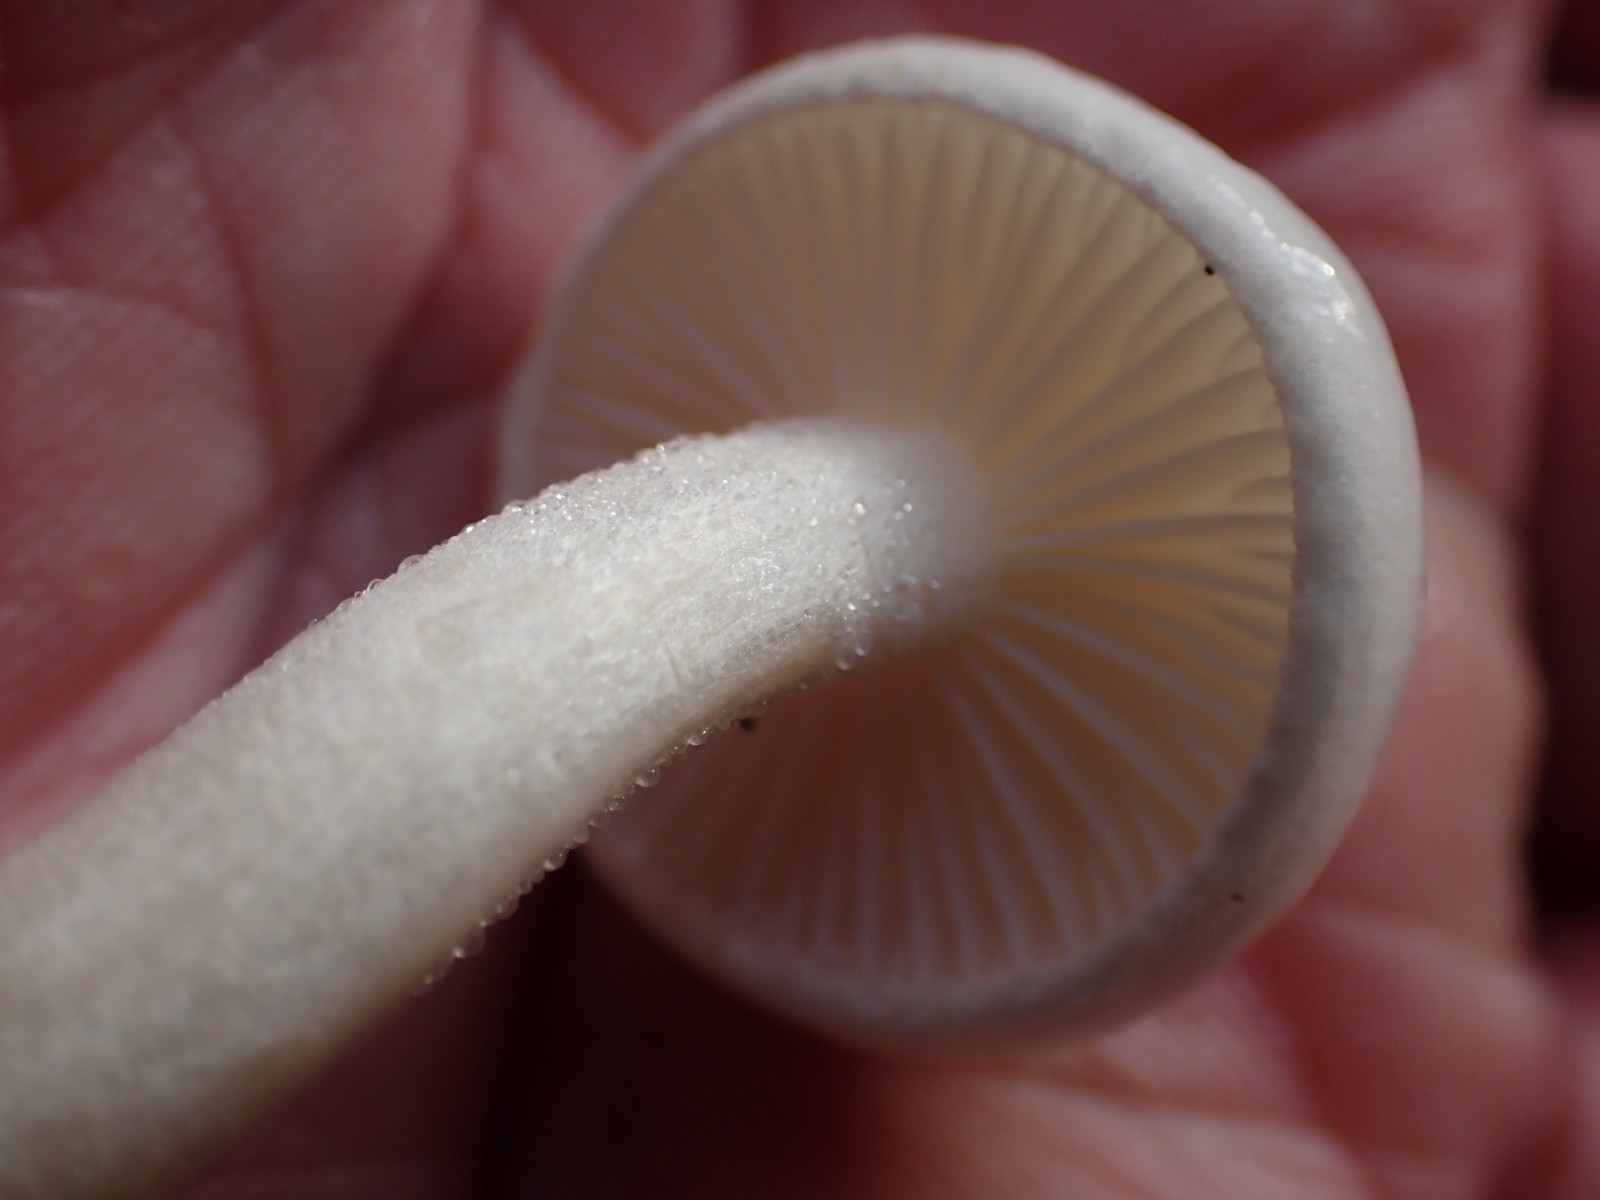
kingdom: Fungi
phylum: Basidiomycota
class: Agaricomycetes
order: Agaricales
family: Hygrophoraceae
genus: Hygrophorus
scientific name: Hygrophorus
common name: sneglehat
